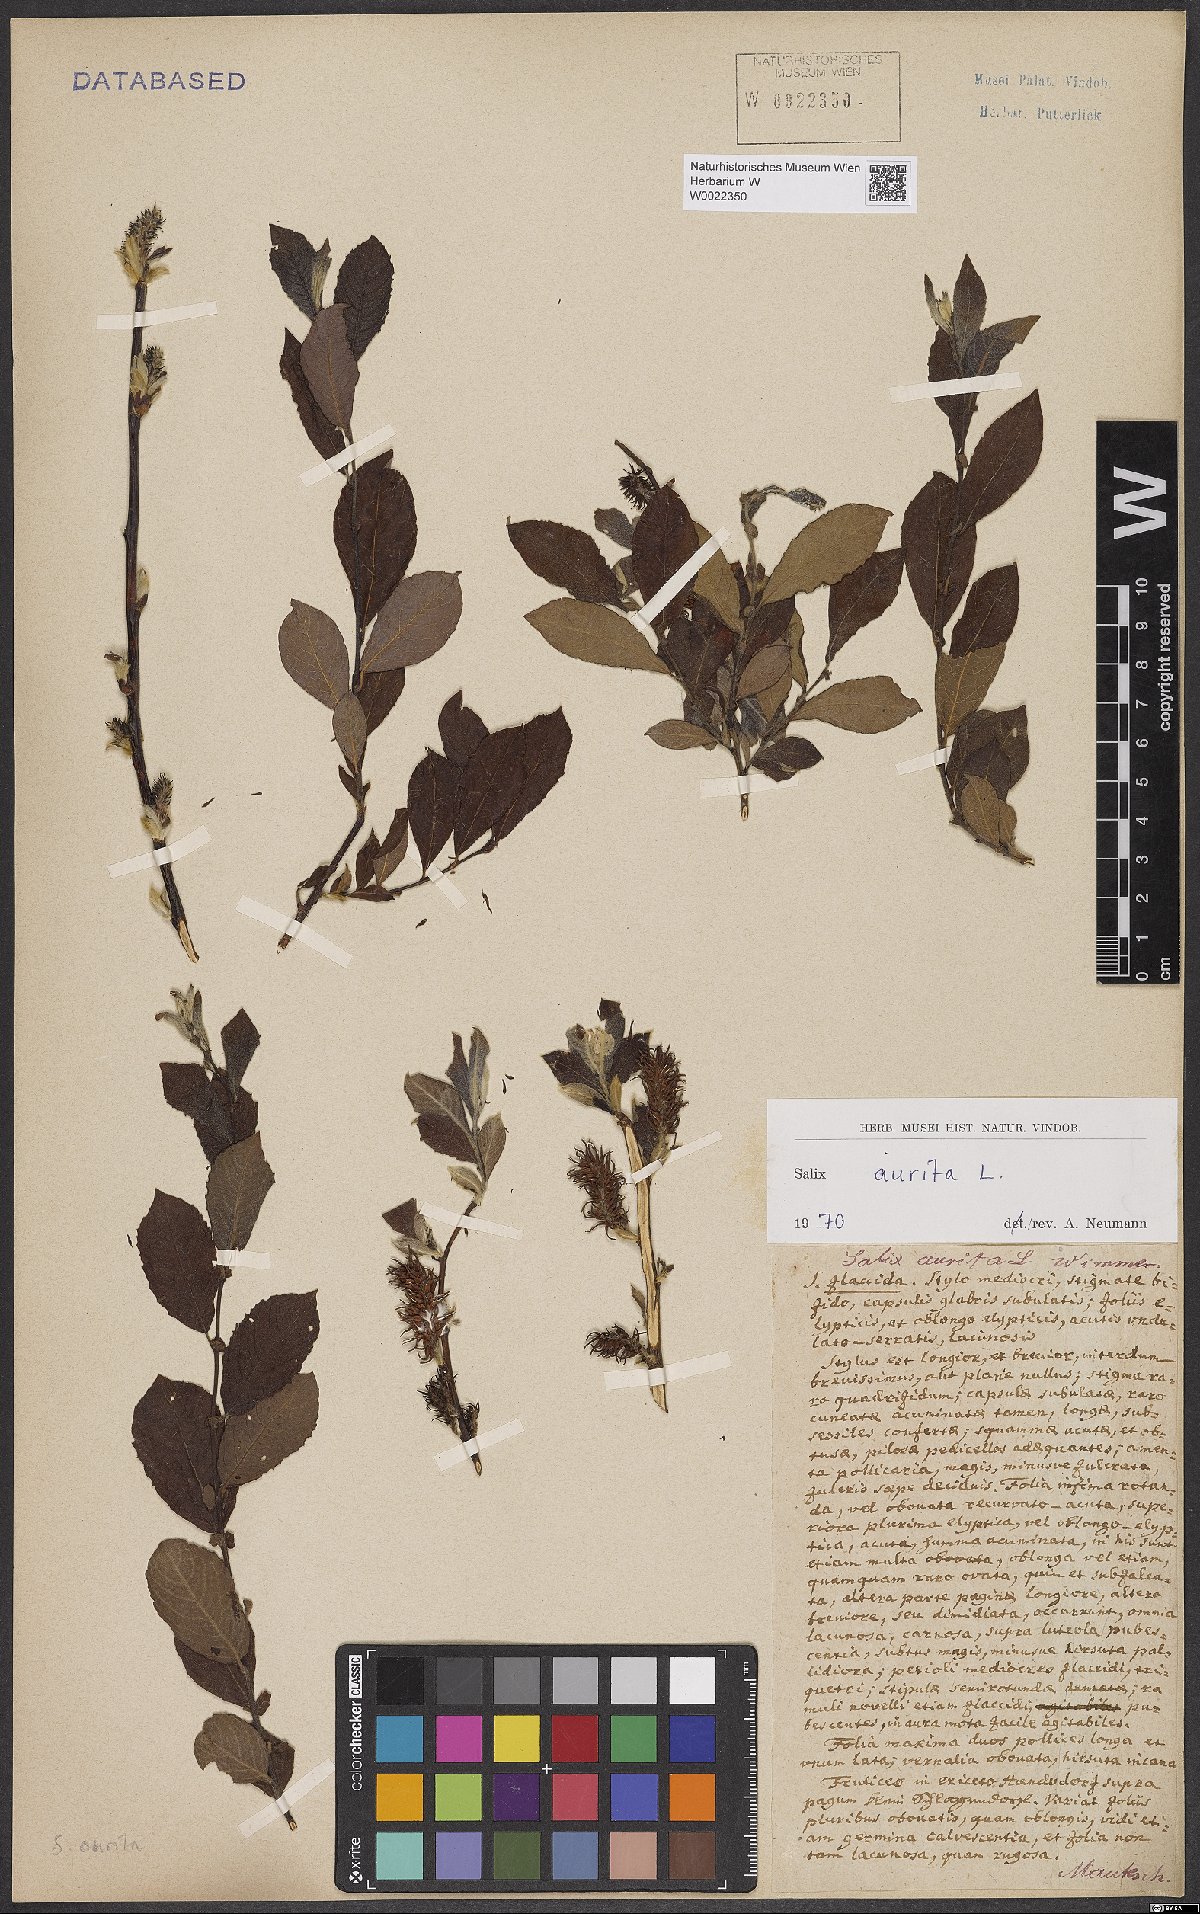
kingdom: Plantae
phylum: Tracheophyta
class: Magnoliopsida
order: Malpighiales
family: Salicaceae
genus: Salix
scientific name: Salix aurita
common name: Eared willow
